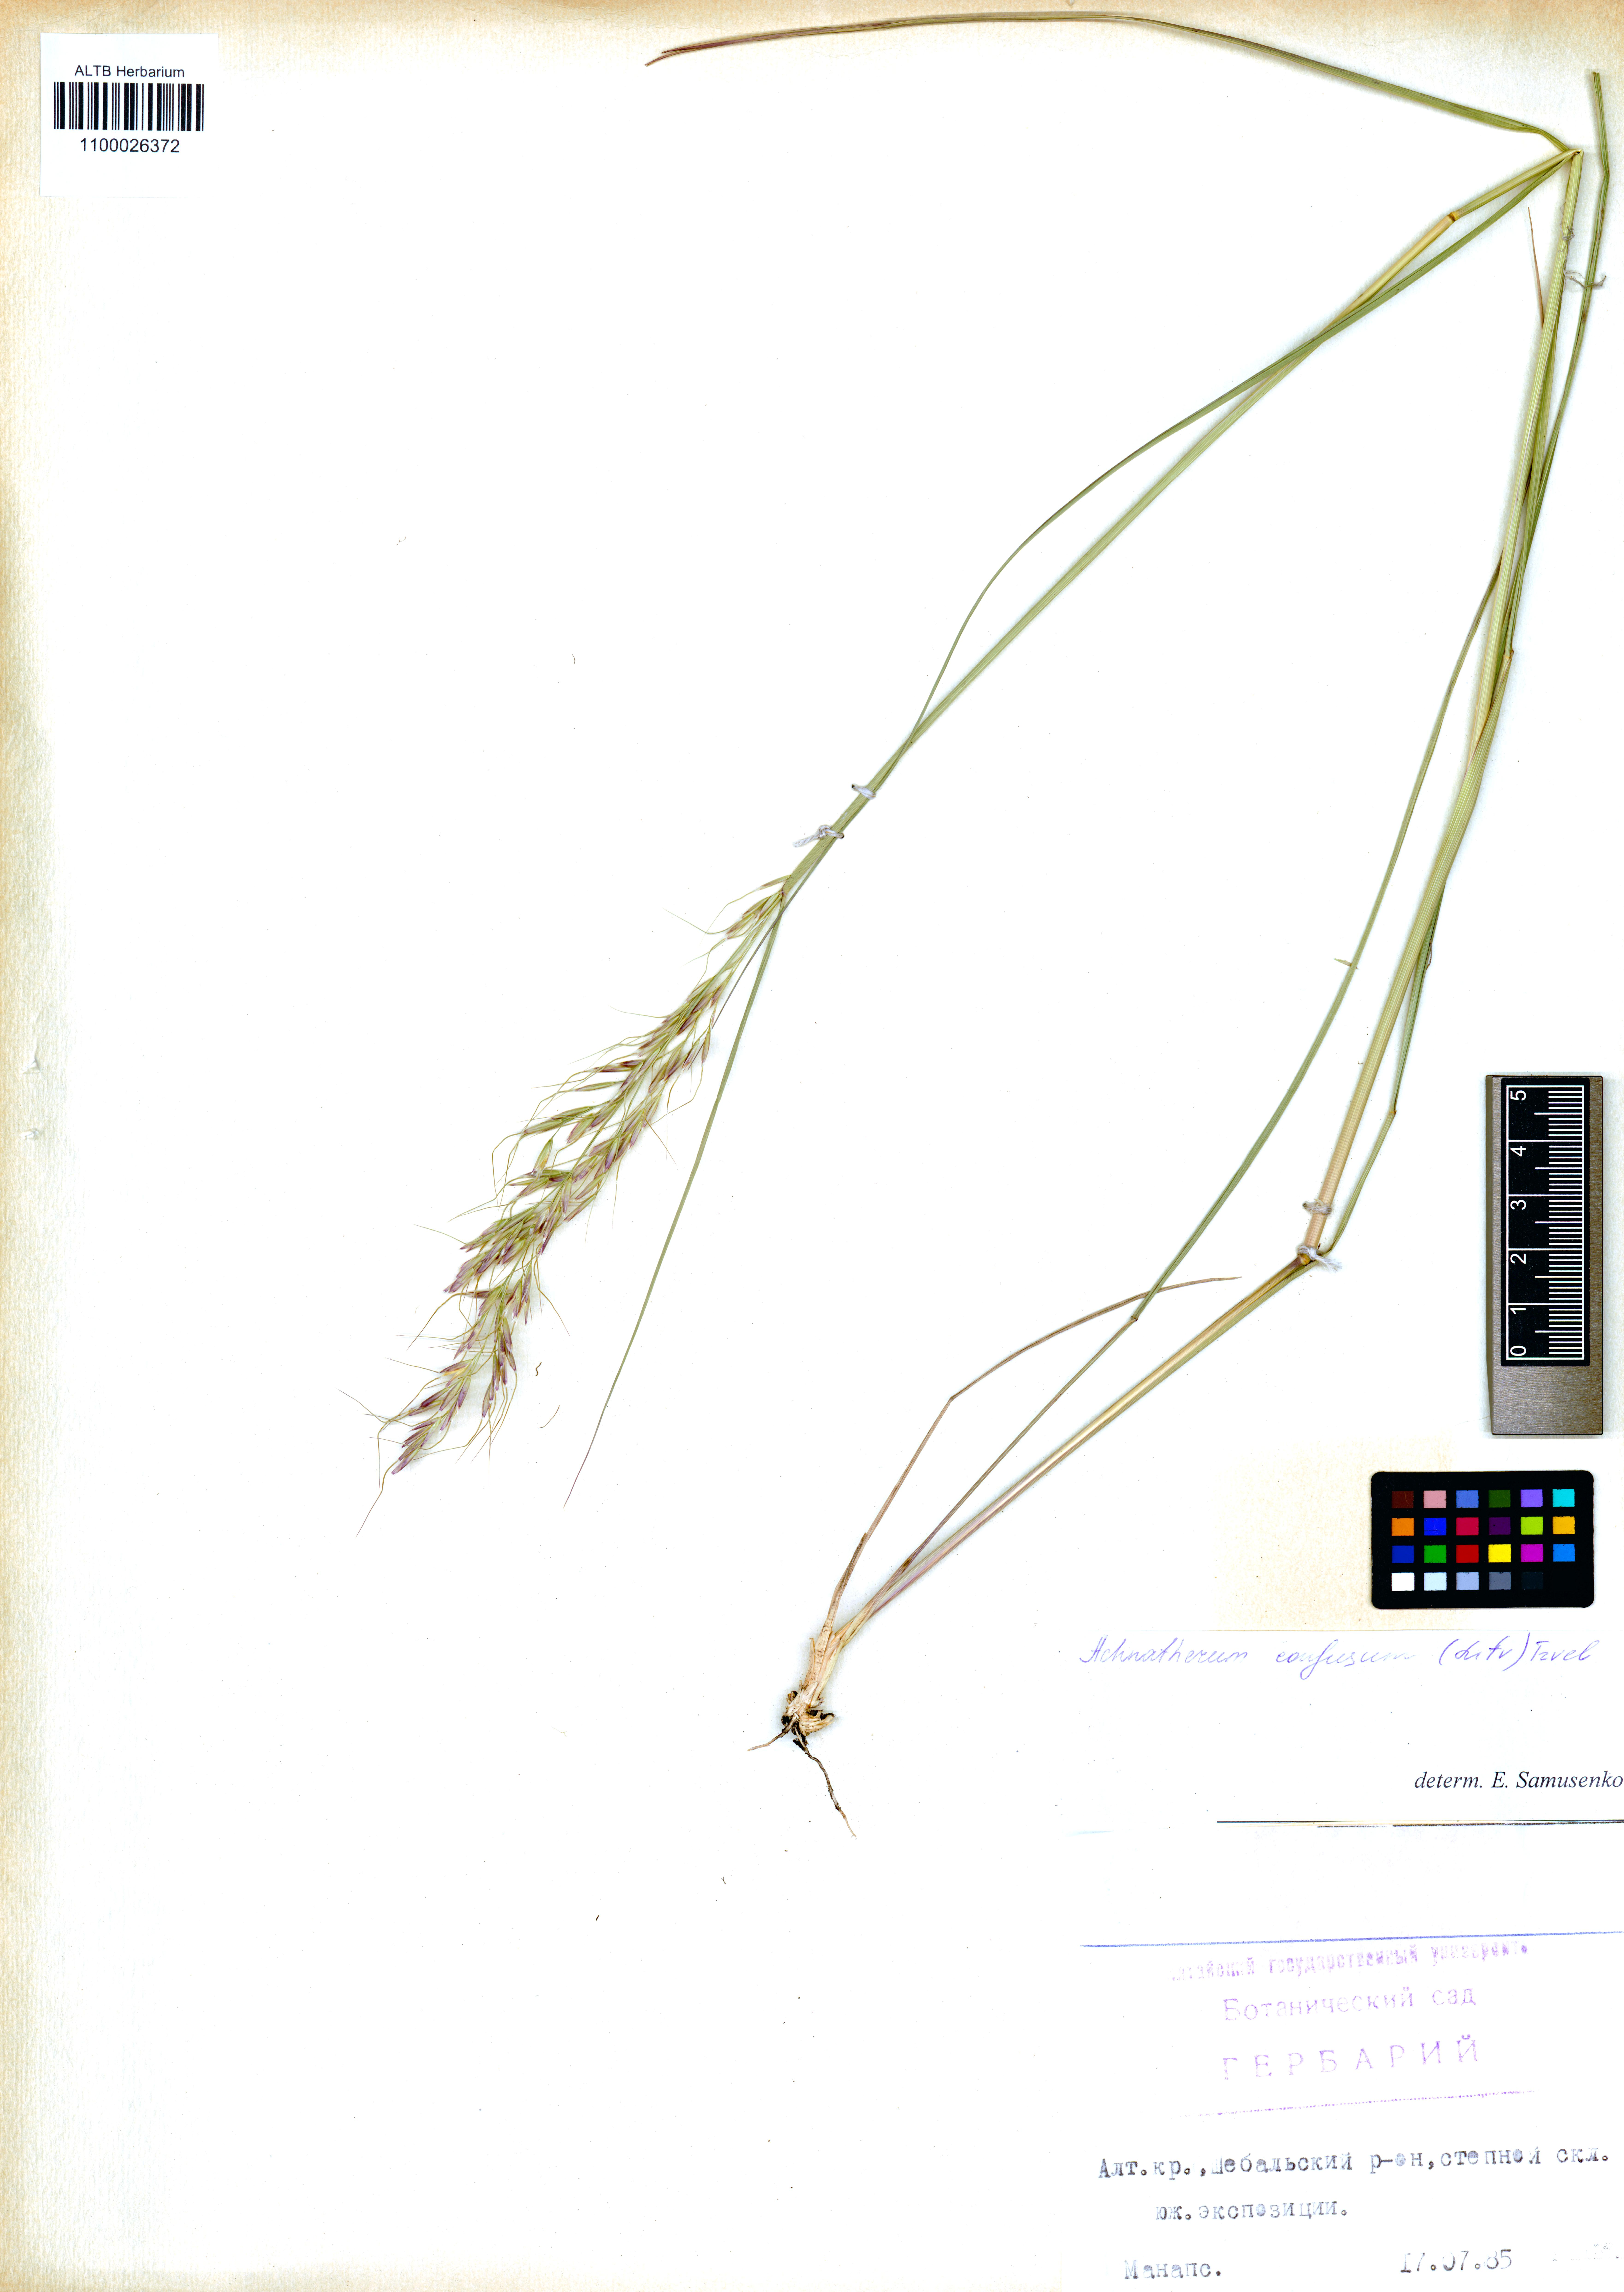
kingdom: Plantae
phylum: Tracheophyta
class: Liliopsida
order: Poales
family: Poaceae
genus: Achnatherum
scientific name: Achnatherum confusum
